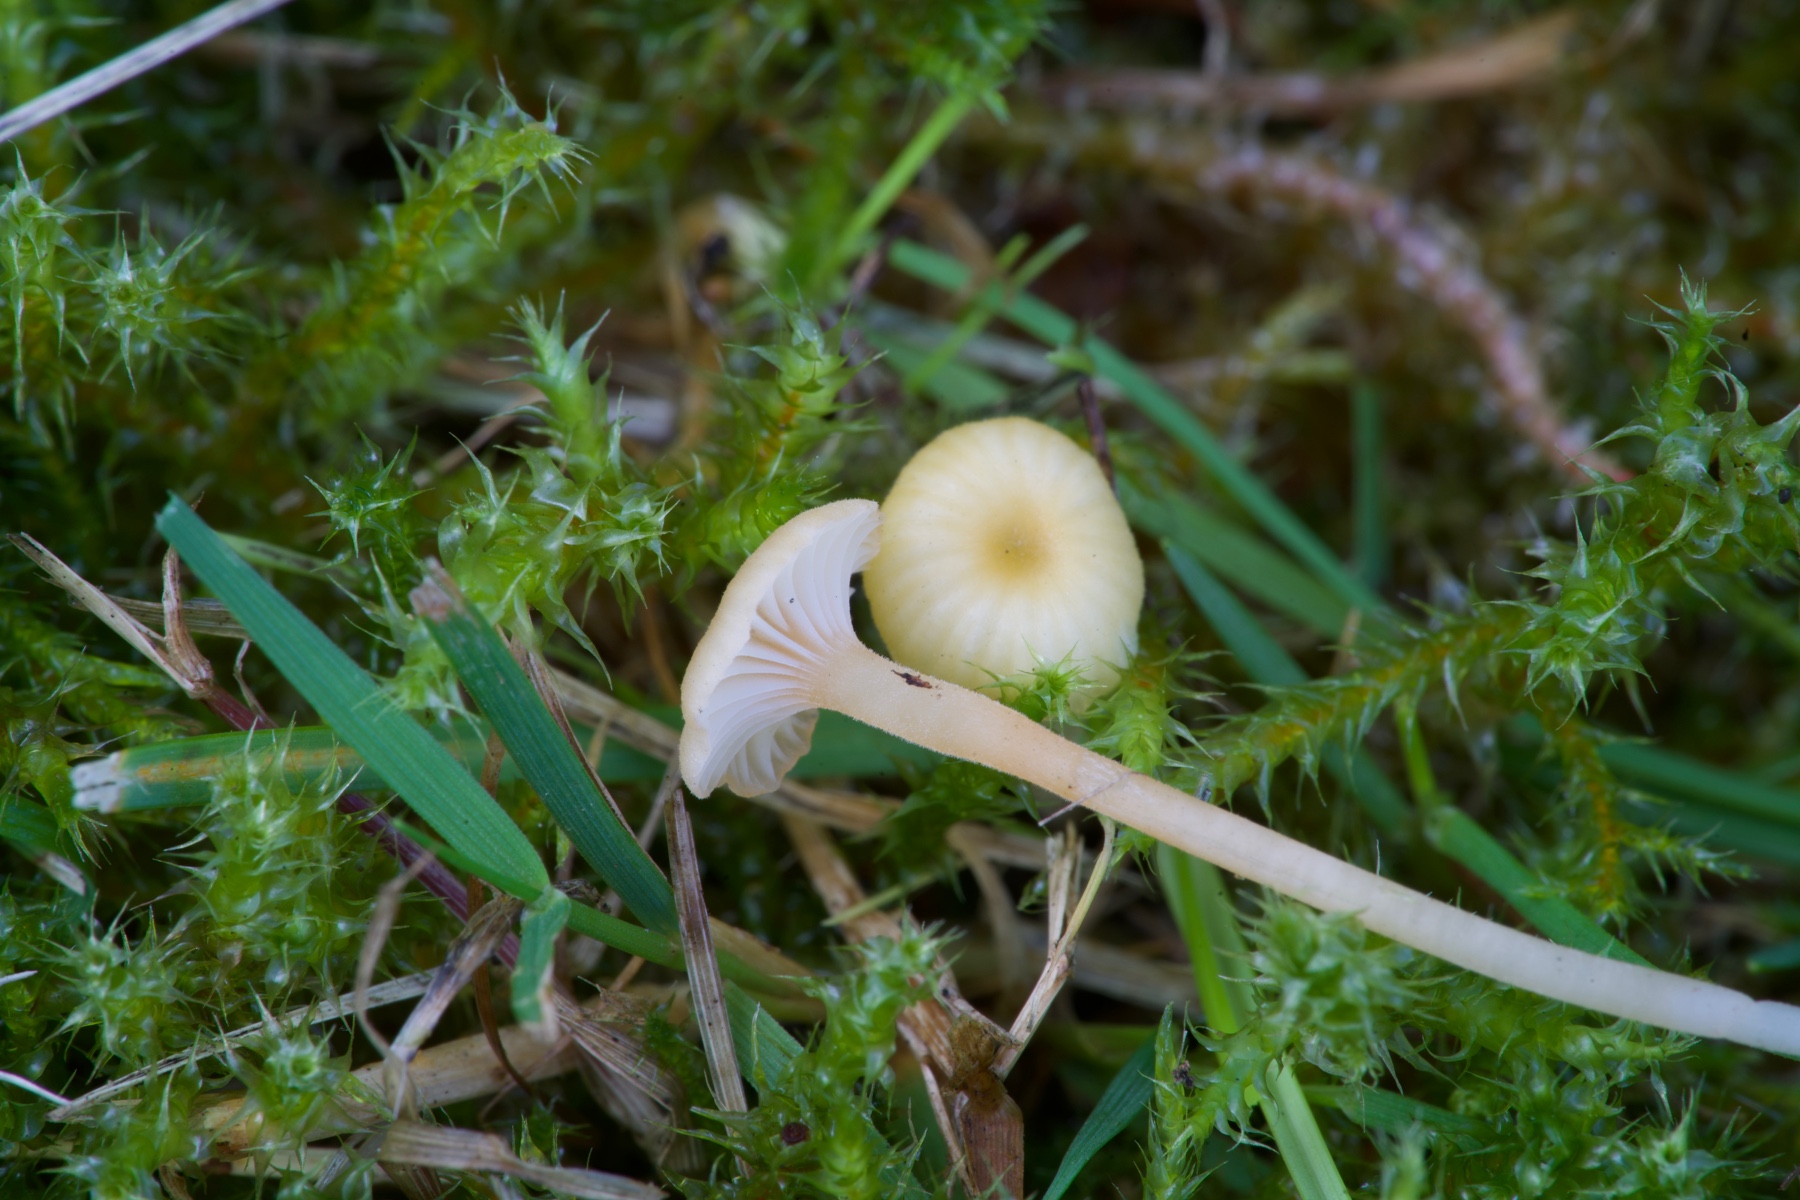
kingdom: Fungi
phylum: Basidiomycota
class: Agaricomycetes
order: Hymenochaetales
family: Rickenellaceae
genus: Rickenella
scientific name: Rickenella
